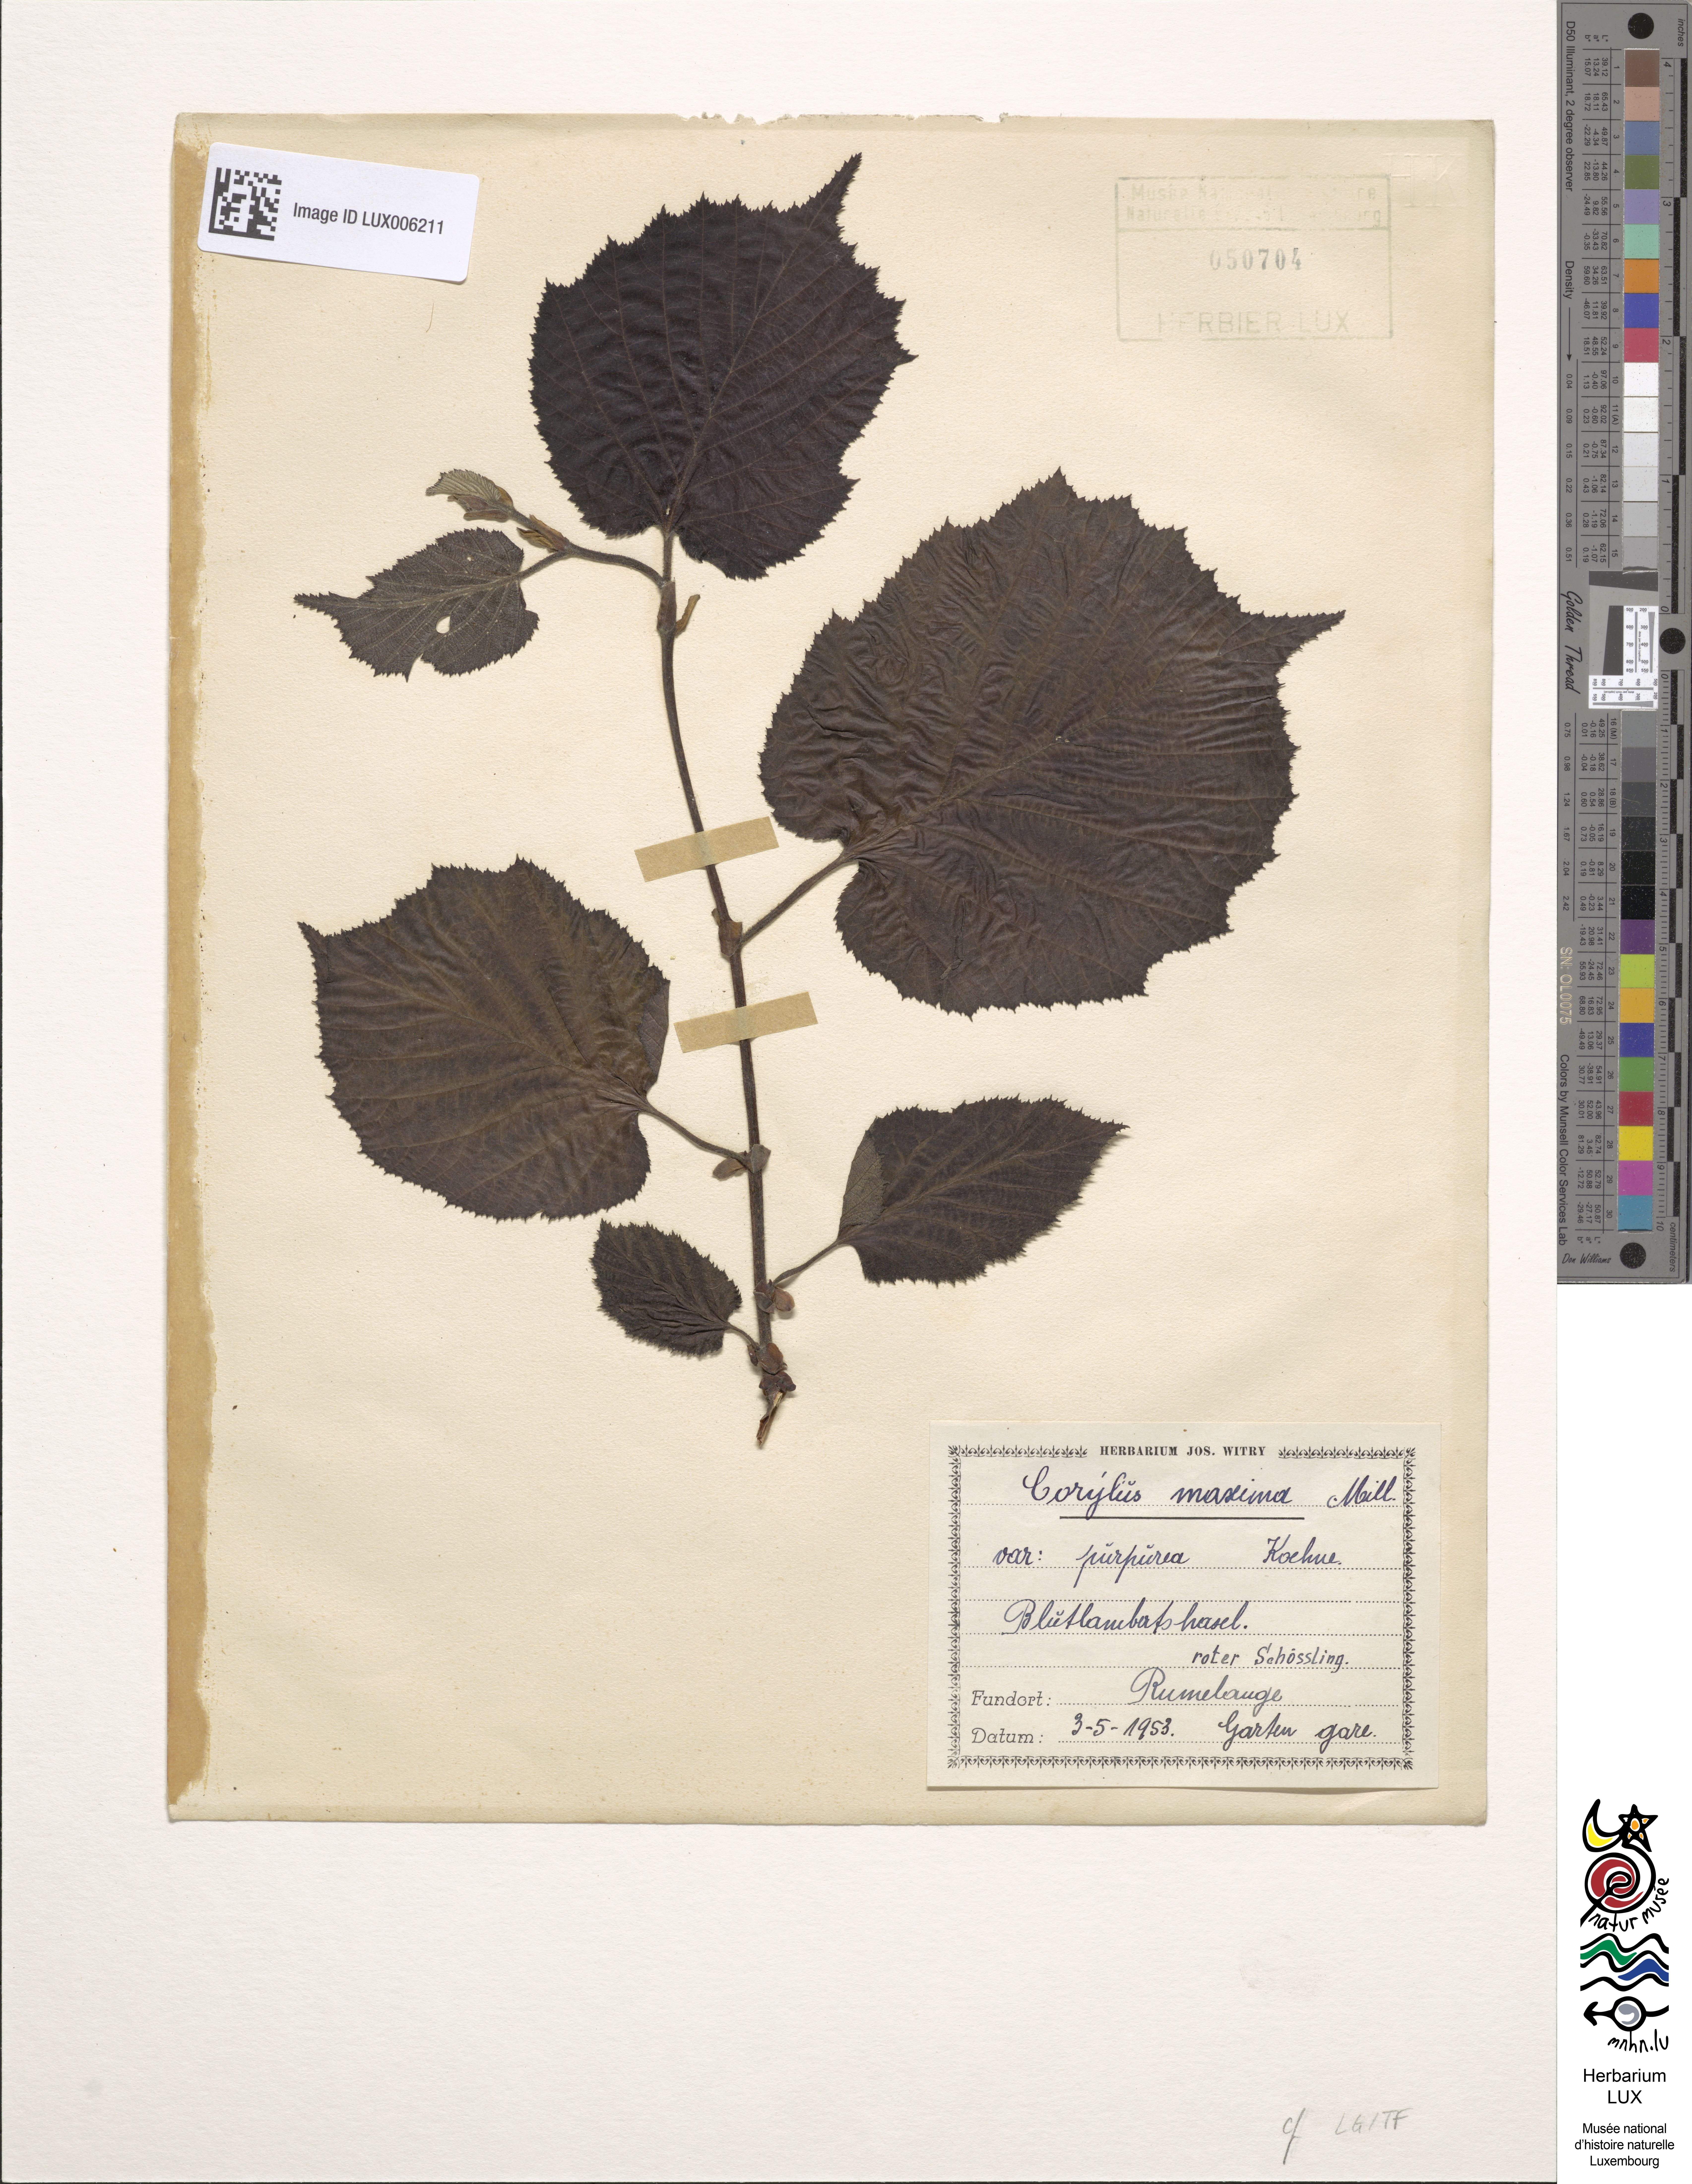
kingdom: Plantae
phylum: Tracheophyta
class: Magnoliopsida
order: Fagales
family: Betulaceae
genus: Corylus
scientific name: Corylus maxima
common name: Filbert
